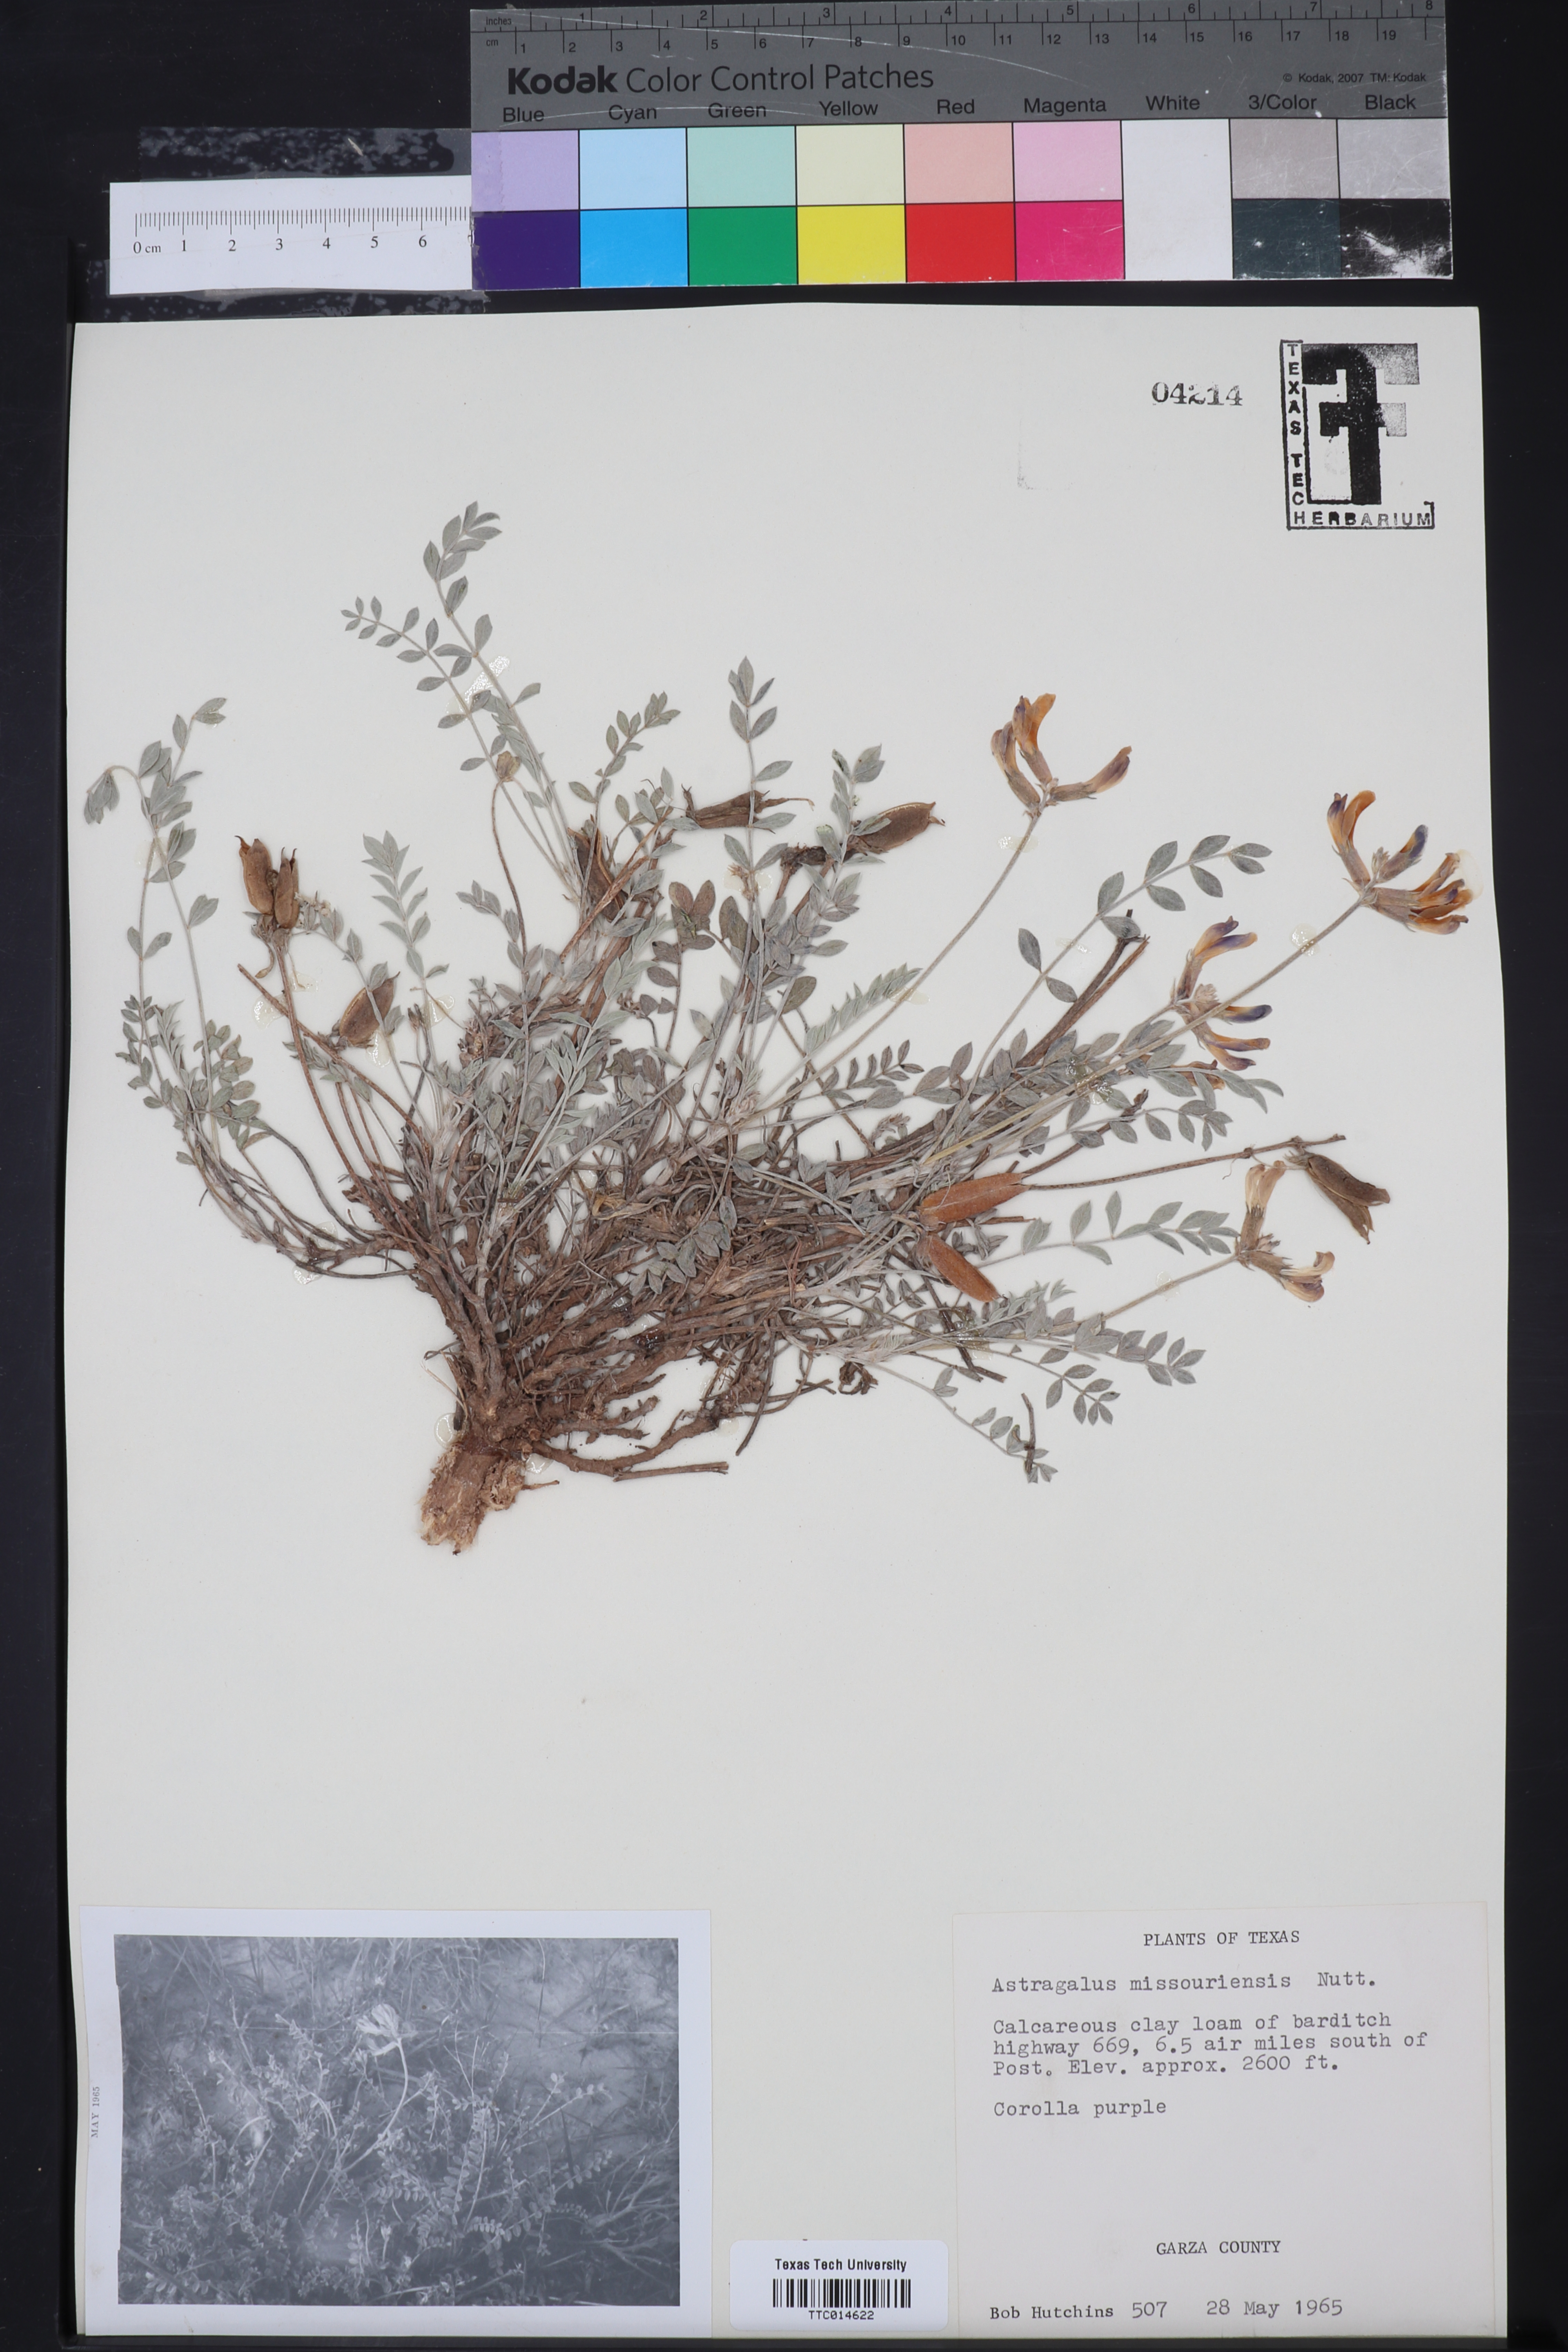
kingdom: Plantae
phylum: Tracheophyta
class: Magnoliopsida
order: Fabales
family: Fabaceae
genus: Astragalus
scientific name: Astragalus missouriensis
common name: Missouri milk-vetch
